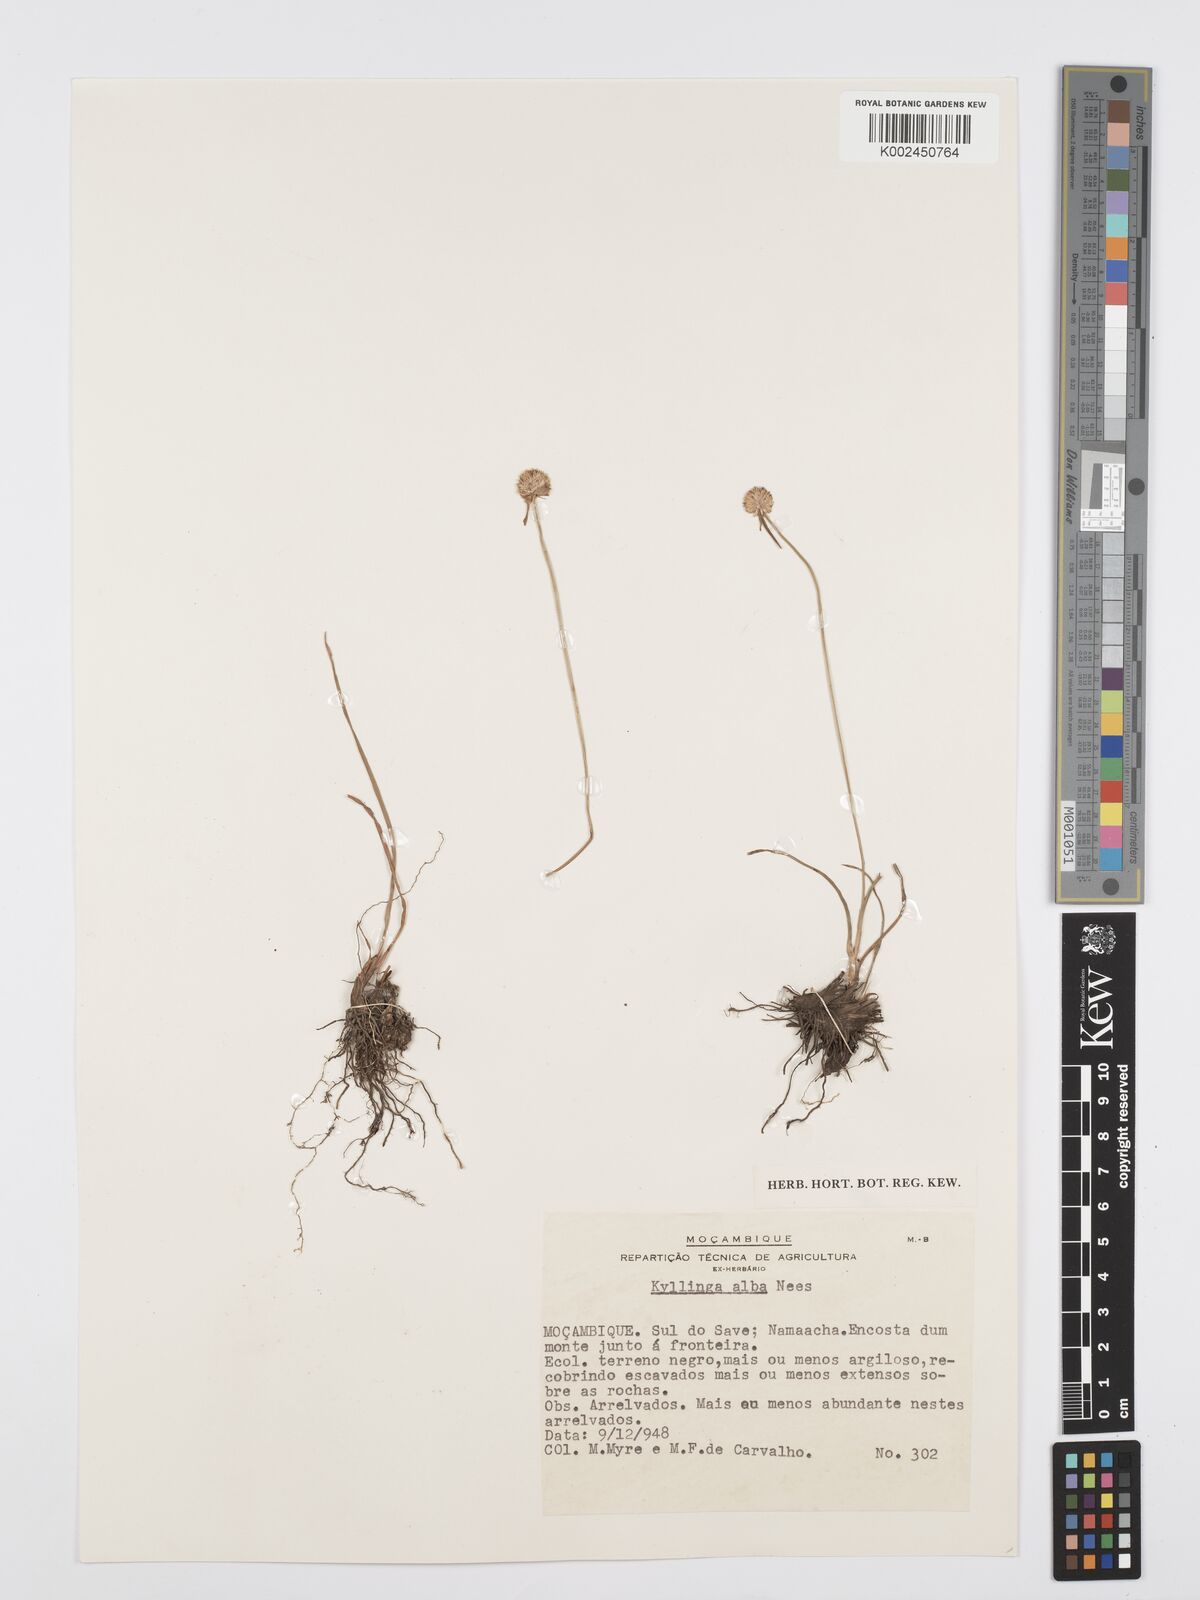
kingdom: Plantae
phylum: Tracheophyta
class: Liliopsida
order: Poales
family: Cyperaceae
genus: Cyperus
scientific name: Cyperus rukwanus
